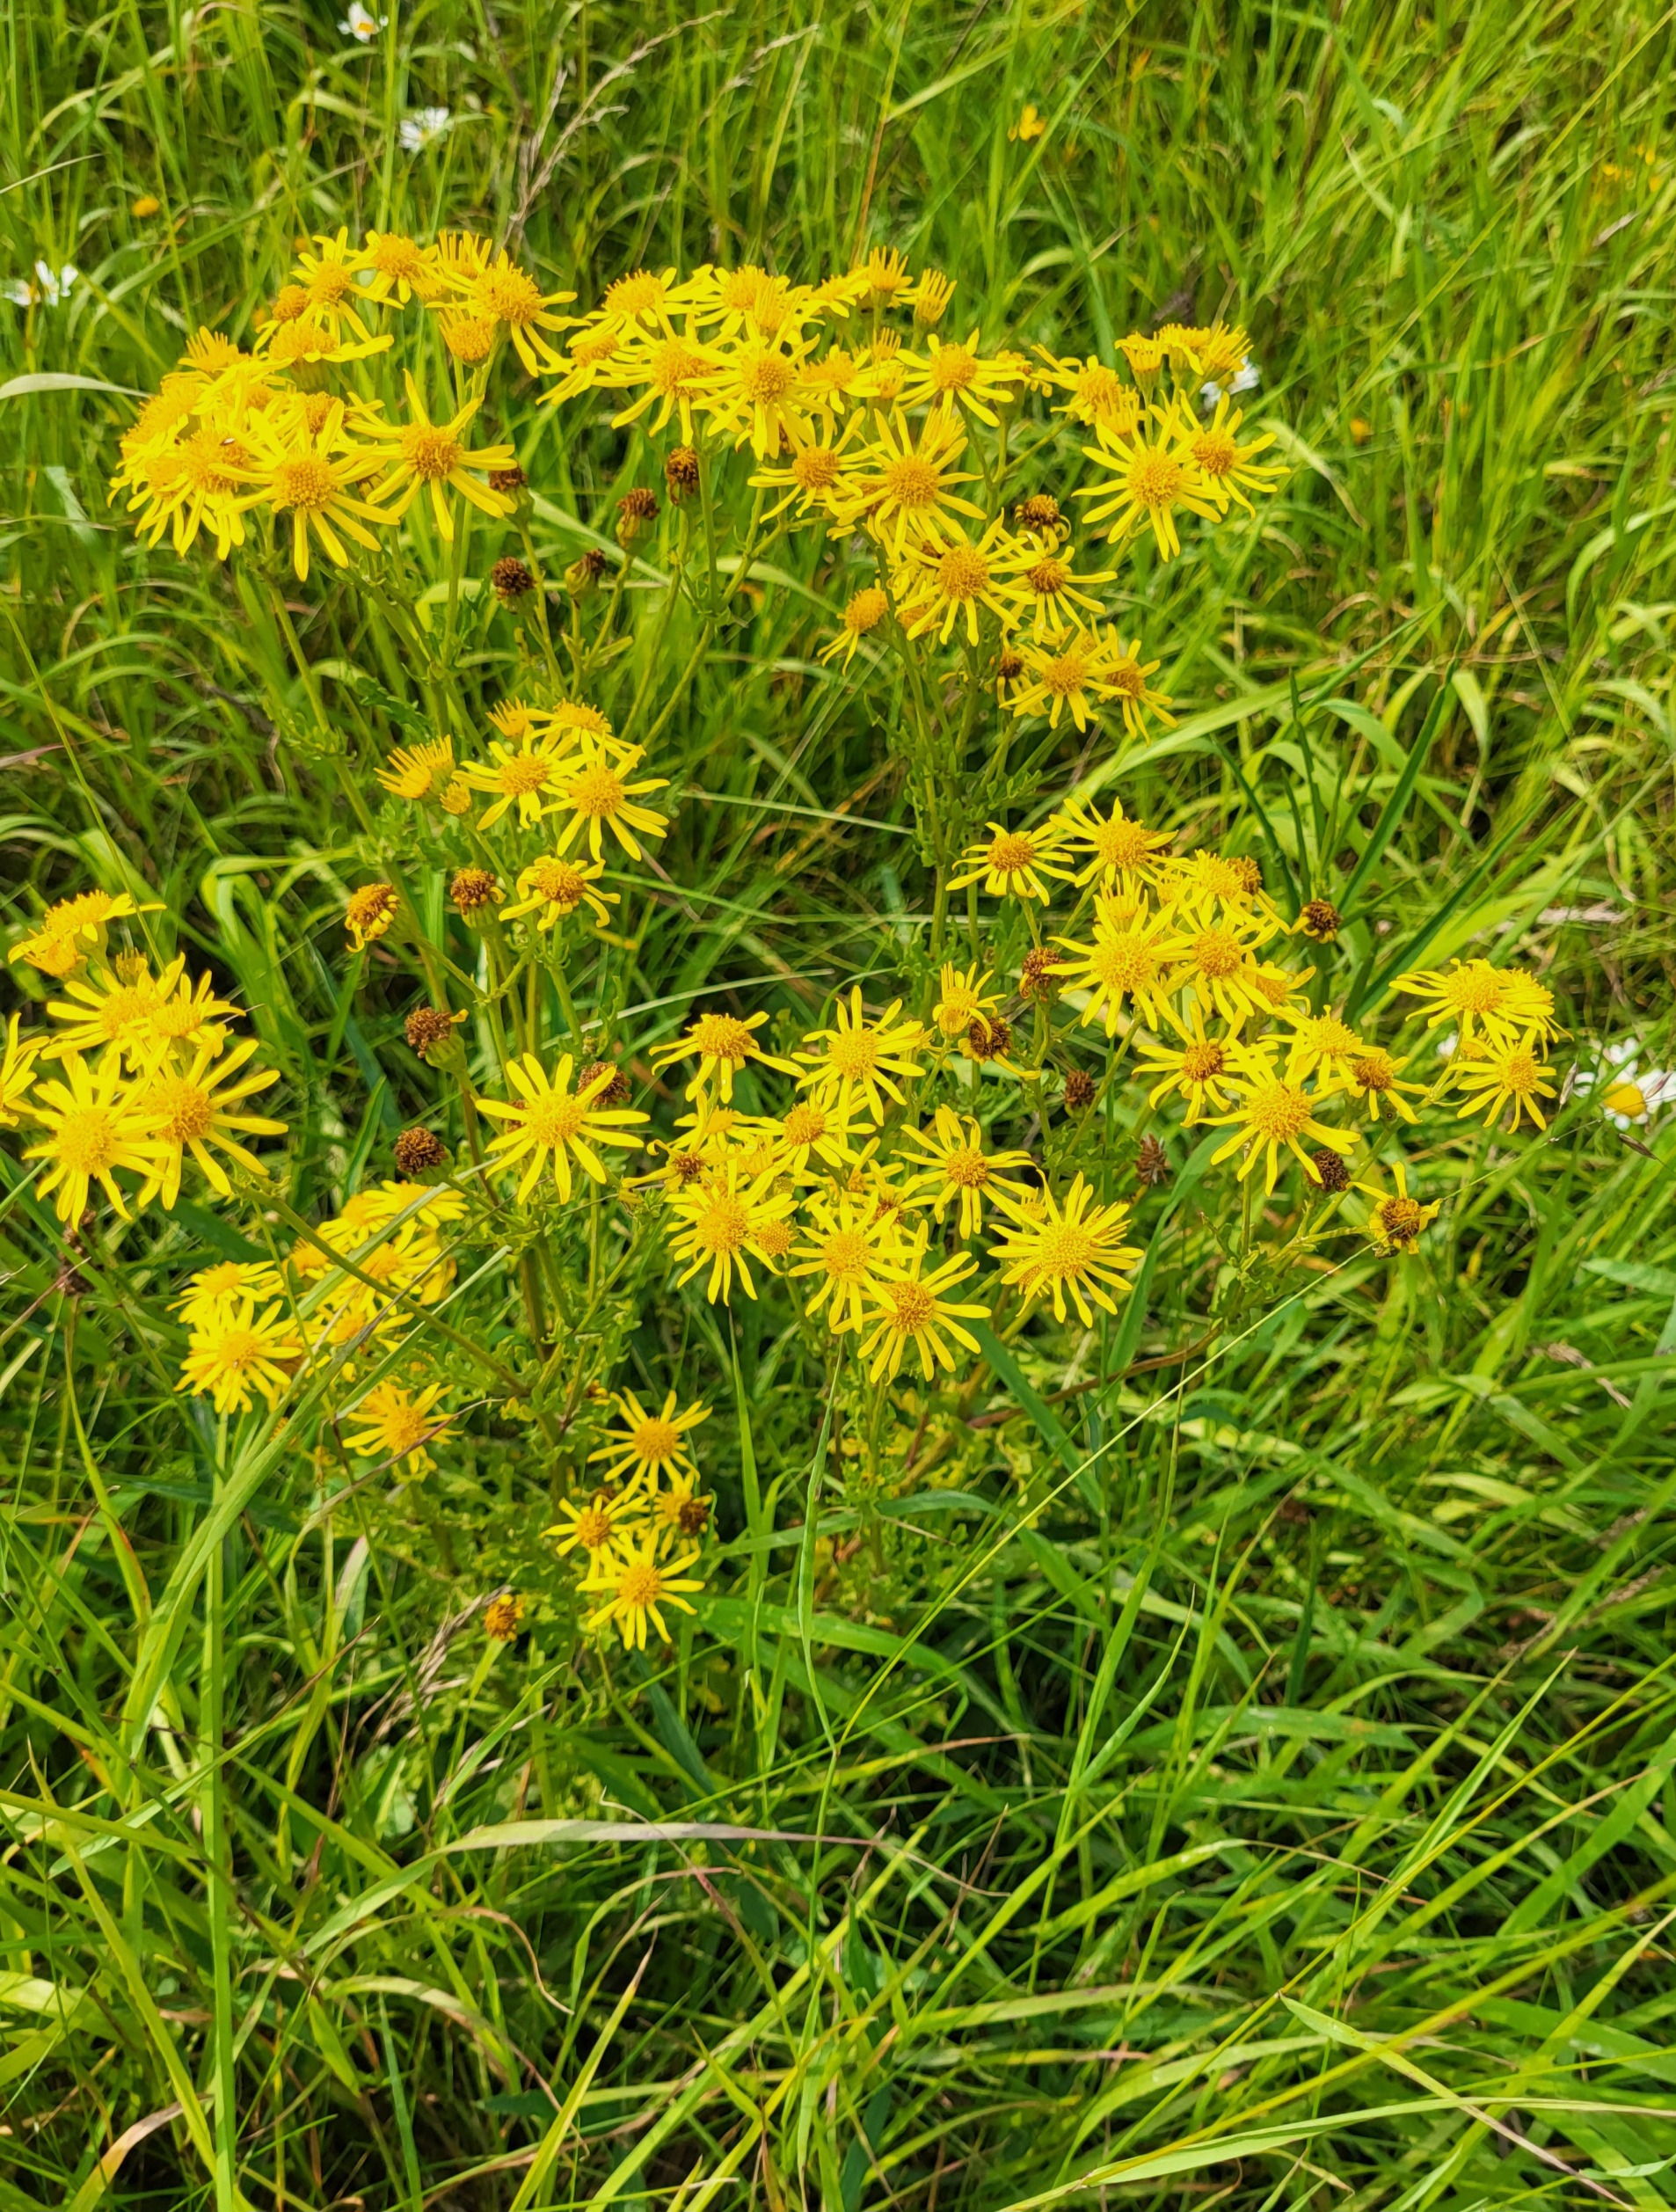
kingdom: Plantae
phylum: Tracheophyta
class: Magnoliopsida
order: Asterales
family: Asteraceae
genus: Jacobaea
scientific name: Jacobaea vulgaris
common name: Eng-brandbæger
